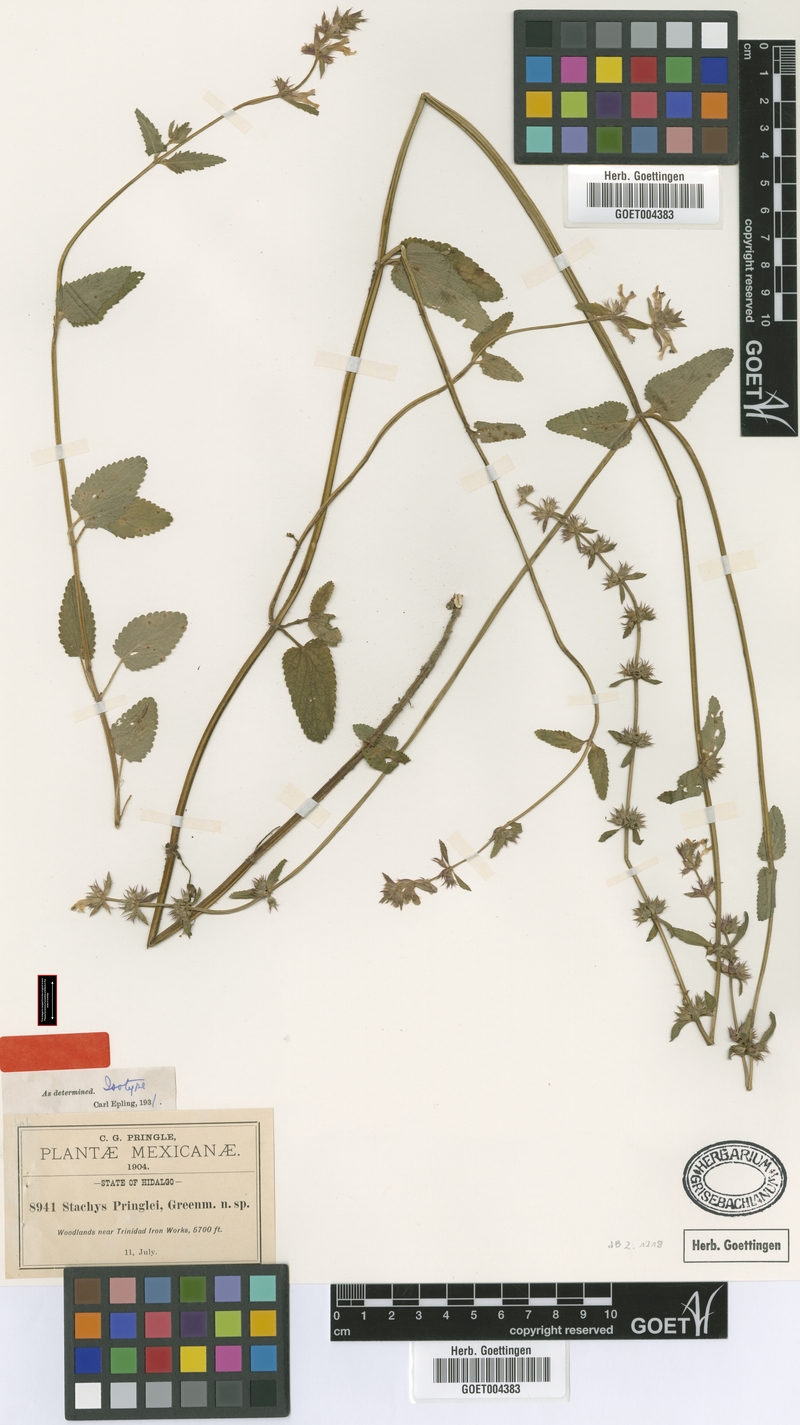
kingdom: Plantae
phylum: Tracheophyta
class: Magnoliopsida
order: Lamiales
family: Lamiaceae
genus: Stachys
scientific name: Stachys pringlei
